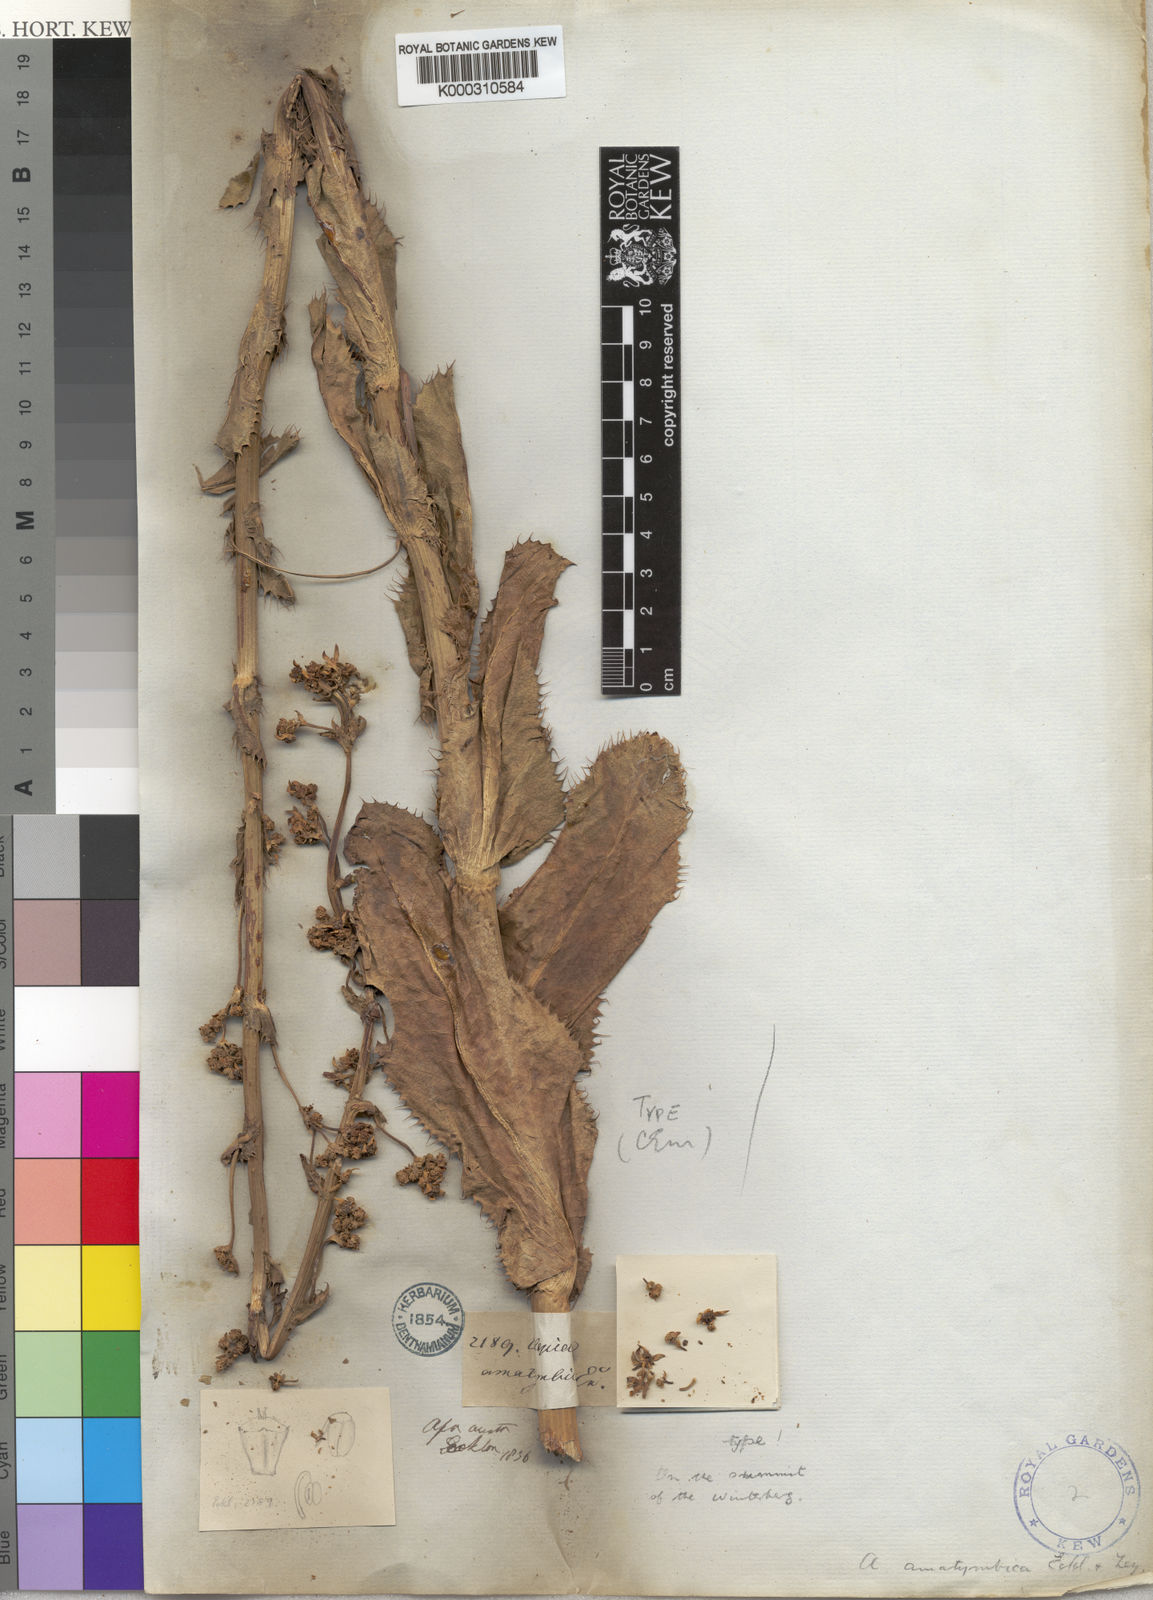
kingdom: Plantae
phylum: Tracheophyta
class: Magnoliopsida
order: Apiales
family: Apiaceae
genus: Alepidea
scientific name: Alepidea amatymbica
